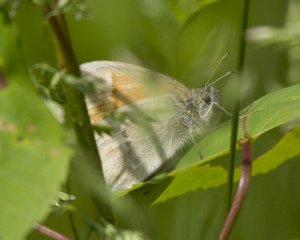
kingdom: Animalia
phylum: Arthropoda
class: Insecta
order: Lepidoptera
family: Nymphalidae
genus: Coenonympha
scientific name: Coenonympha tullia
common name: Large Heath
